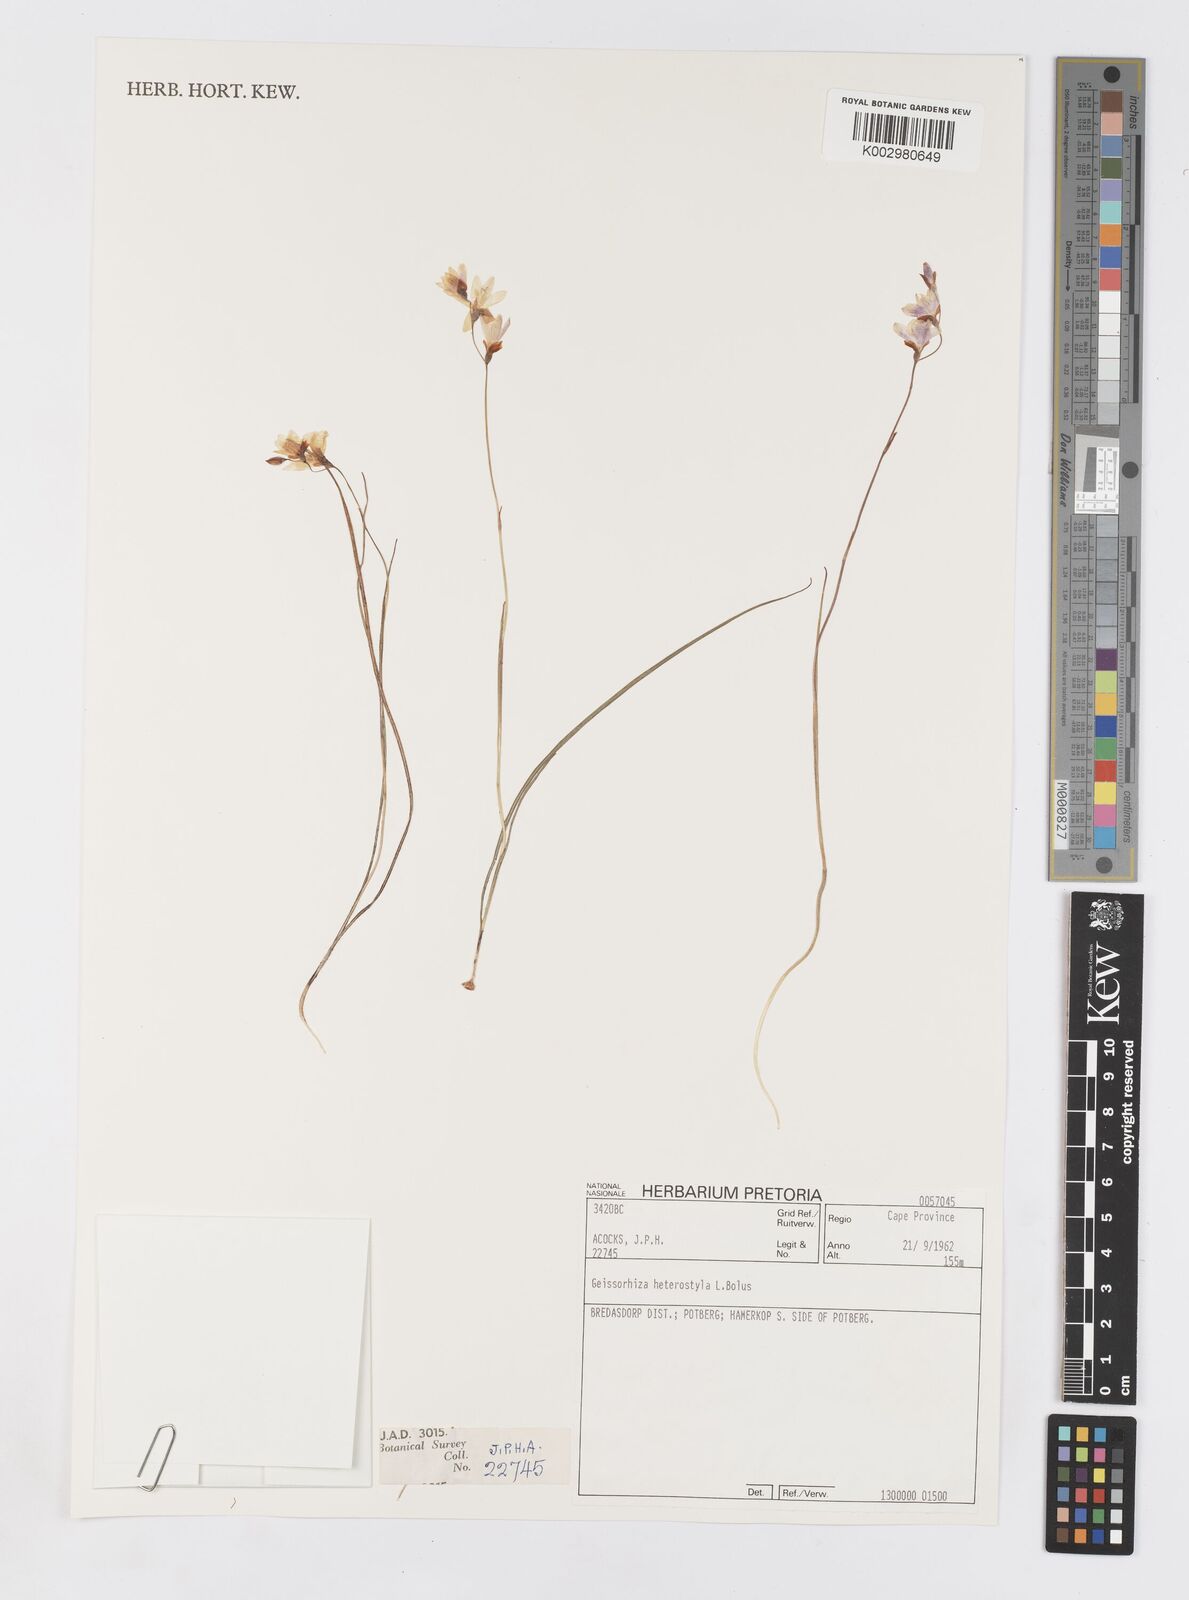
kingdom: Plantae
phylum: Tracheophyta
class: Liliopsida
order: Asparagales
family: Iridaceae
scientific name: Iridaceae
